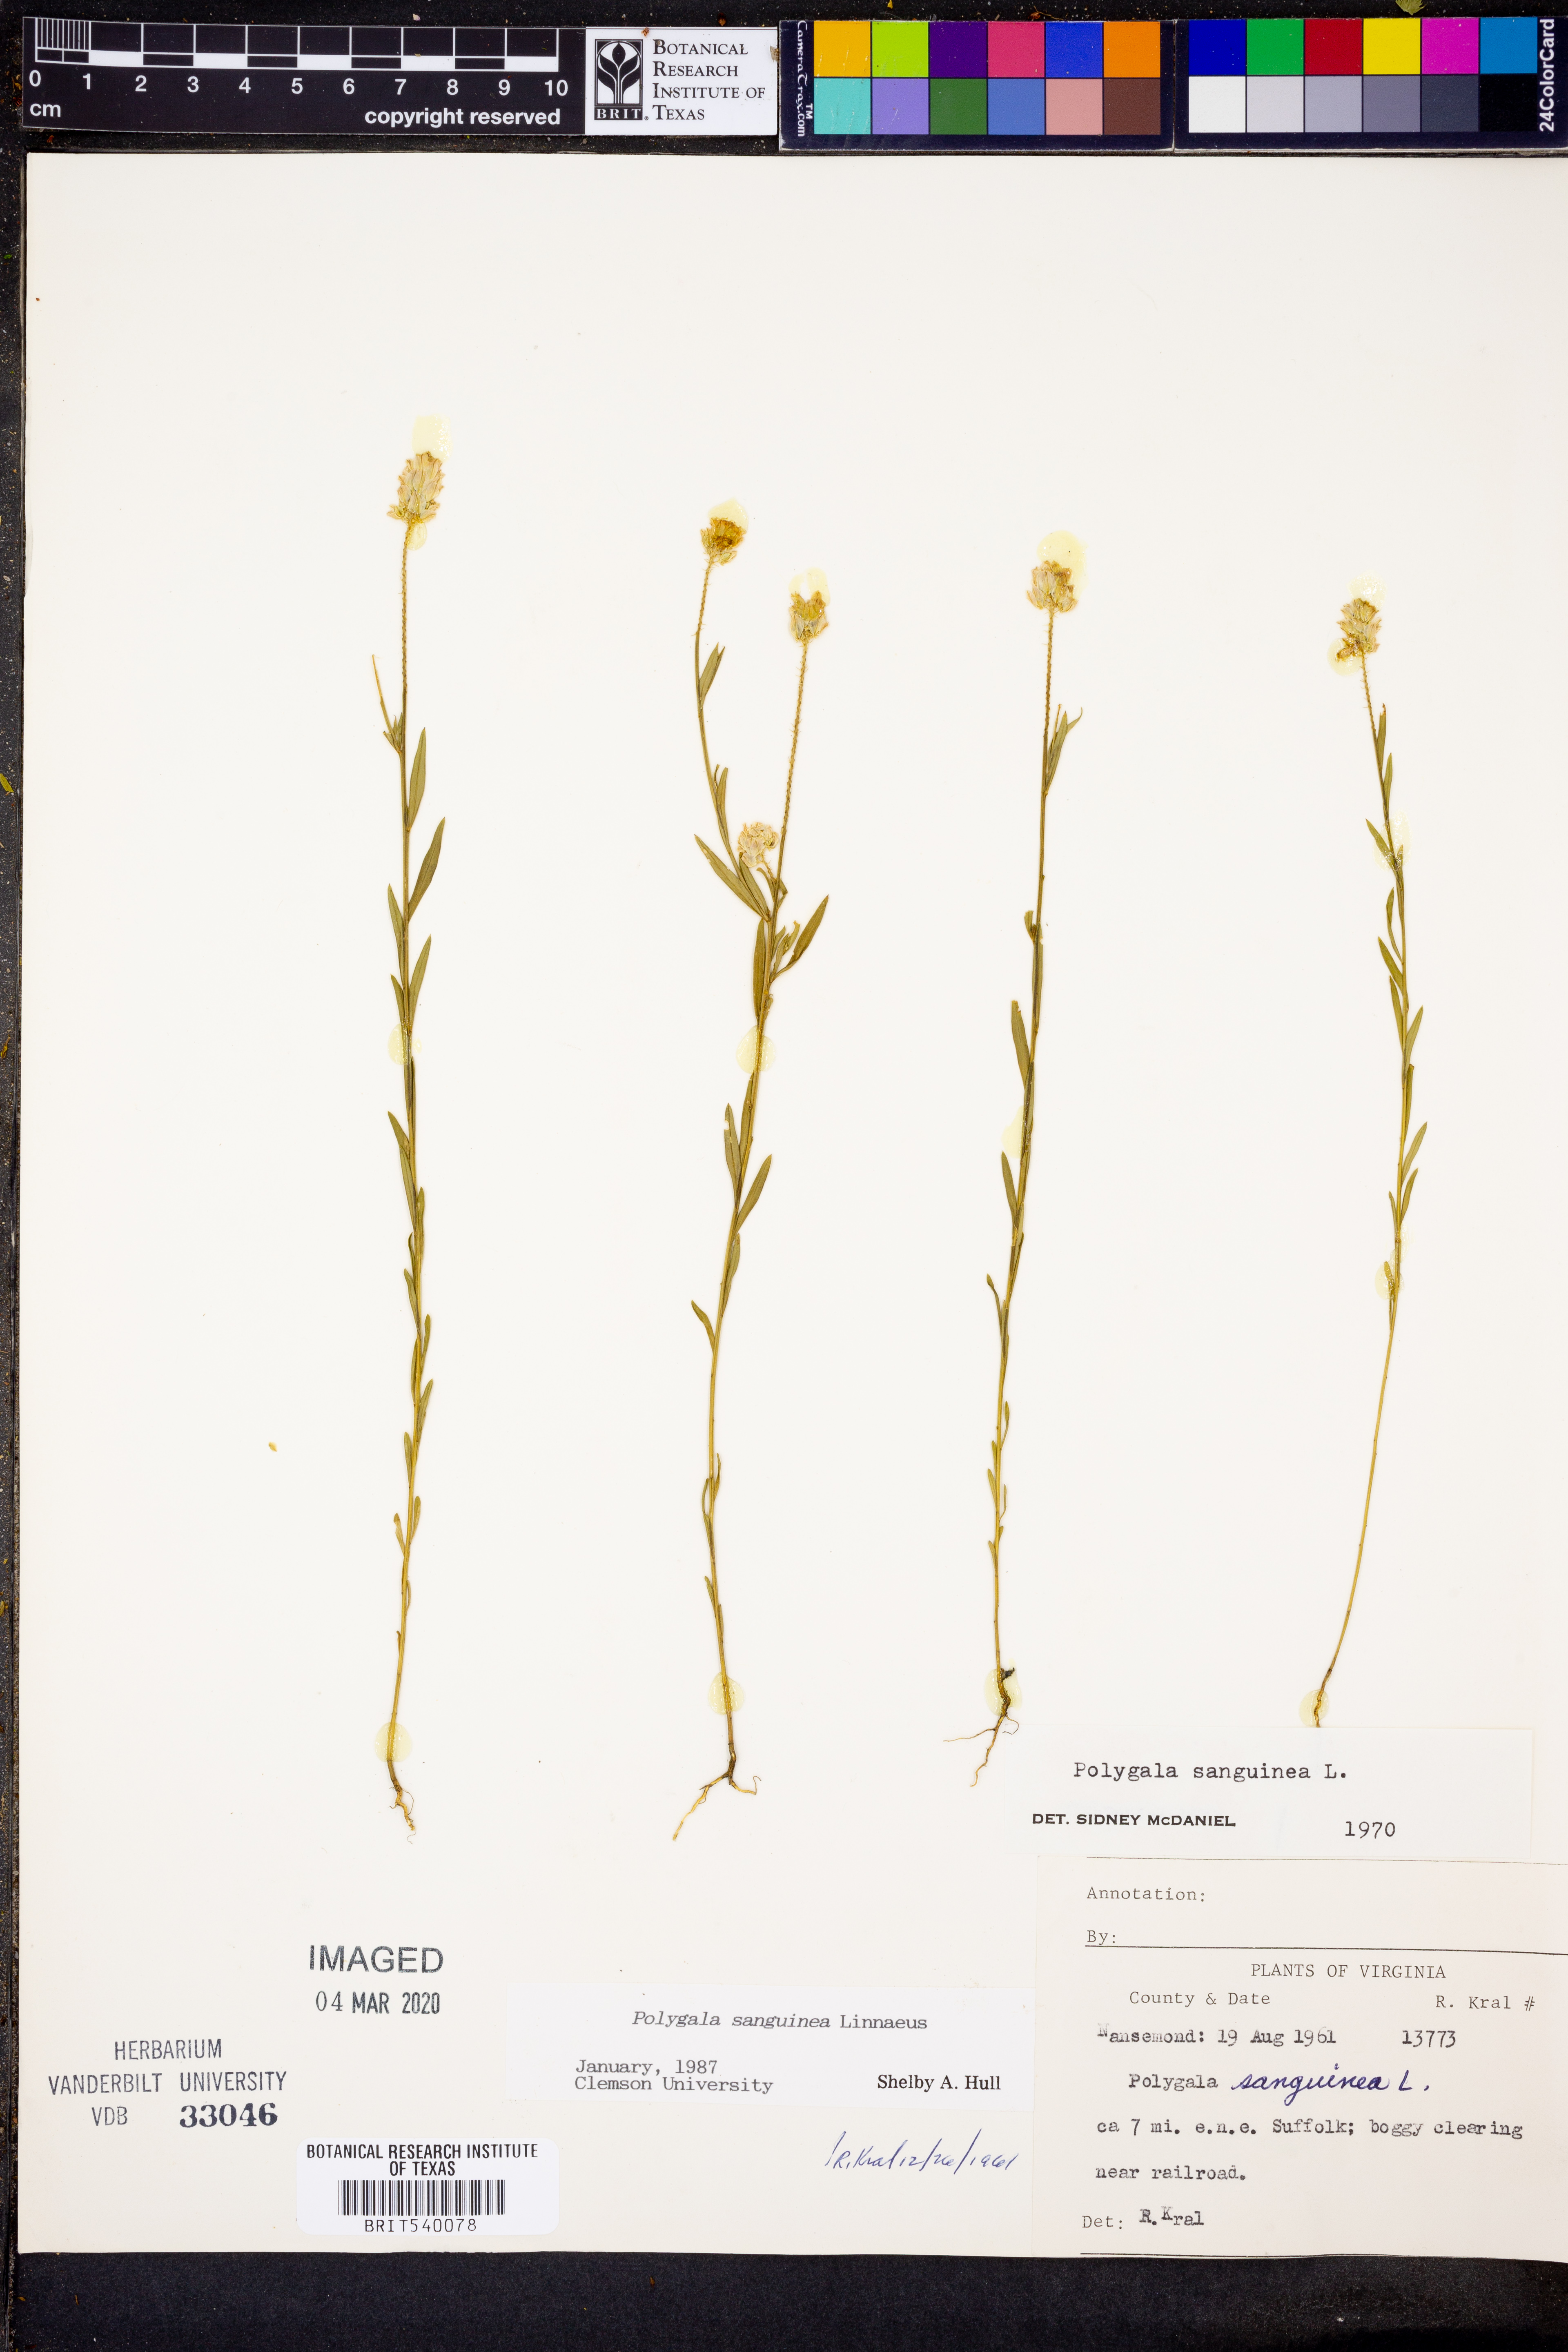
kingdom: Plantae
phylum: Tracheophyta
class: Magnoliopsida
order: Fabales
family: Polygalaceae
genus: Polygala
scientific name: Polygala sanguinea
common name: Blood milkwort
